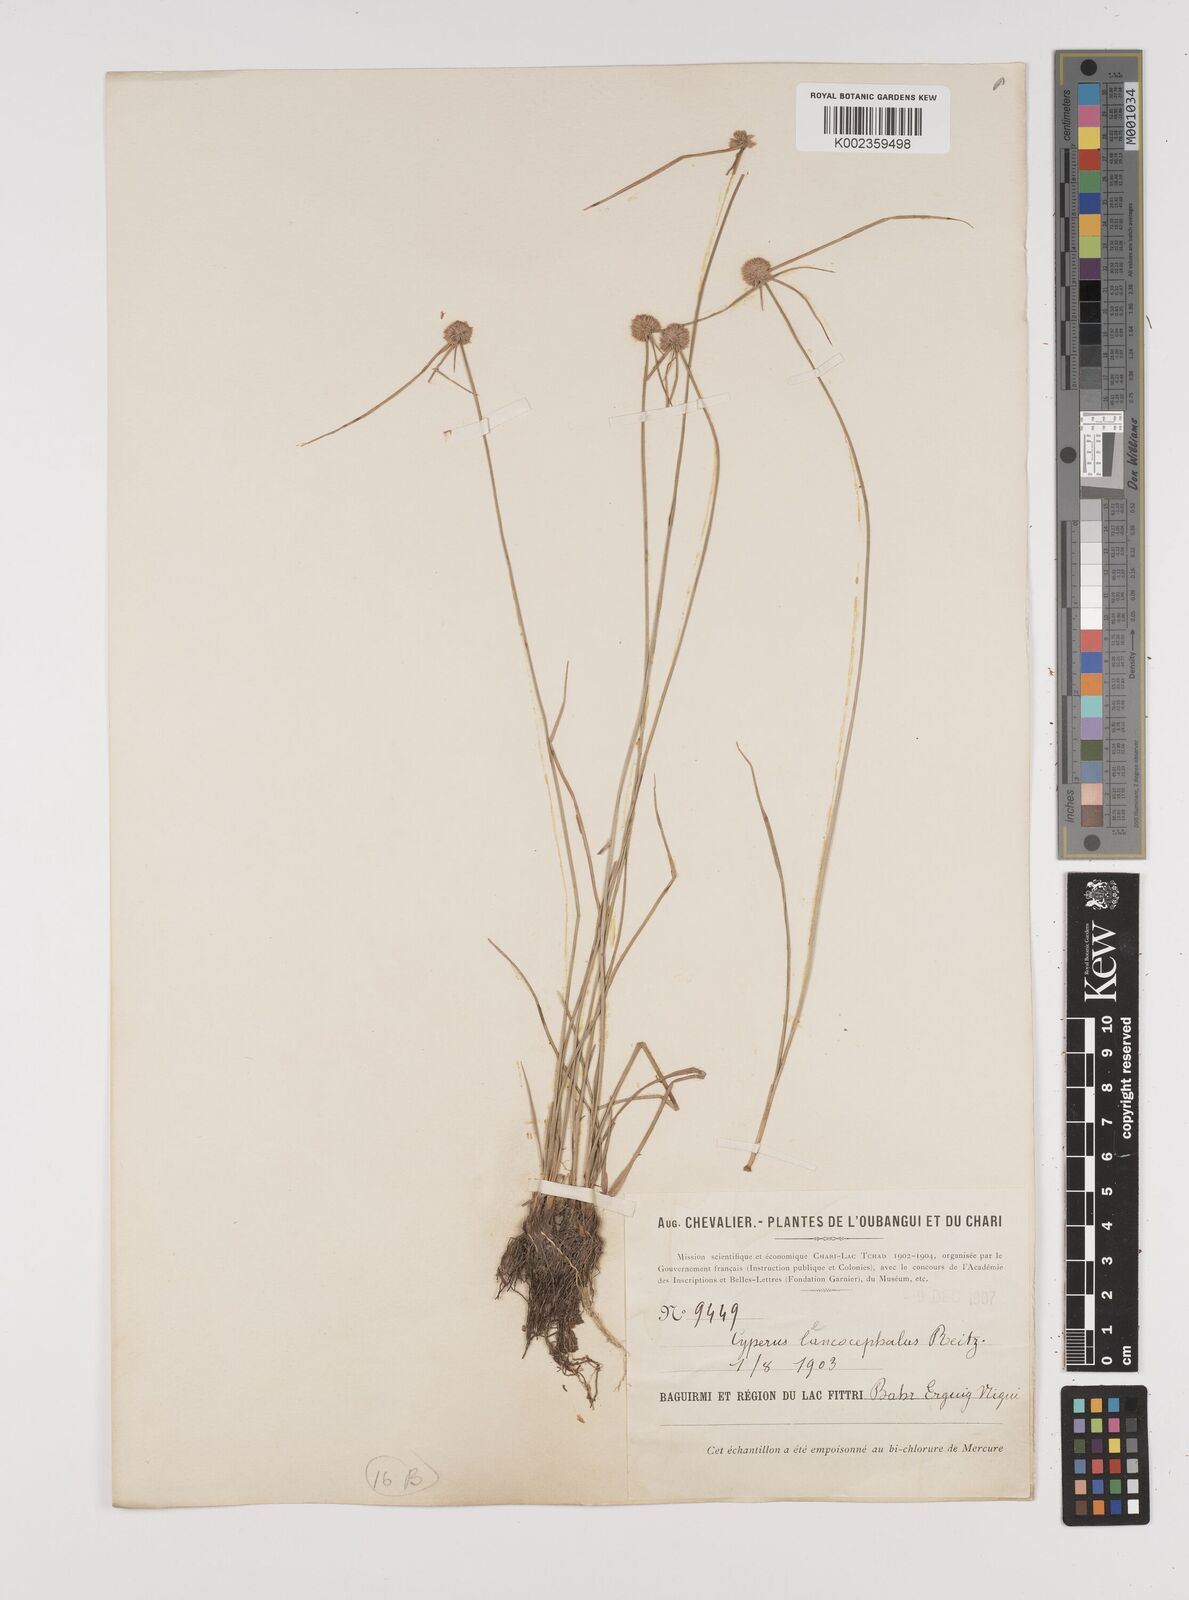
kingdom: Plantae
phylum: Tracheophyta
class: Liliopsida
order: Poales
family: Cyperaceae
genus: Cyperus
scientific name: Cyperus pulchellus
